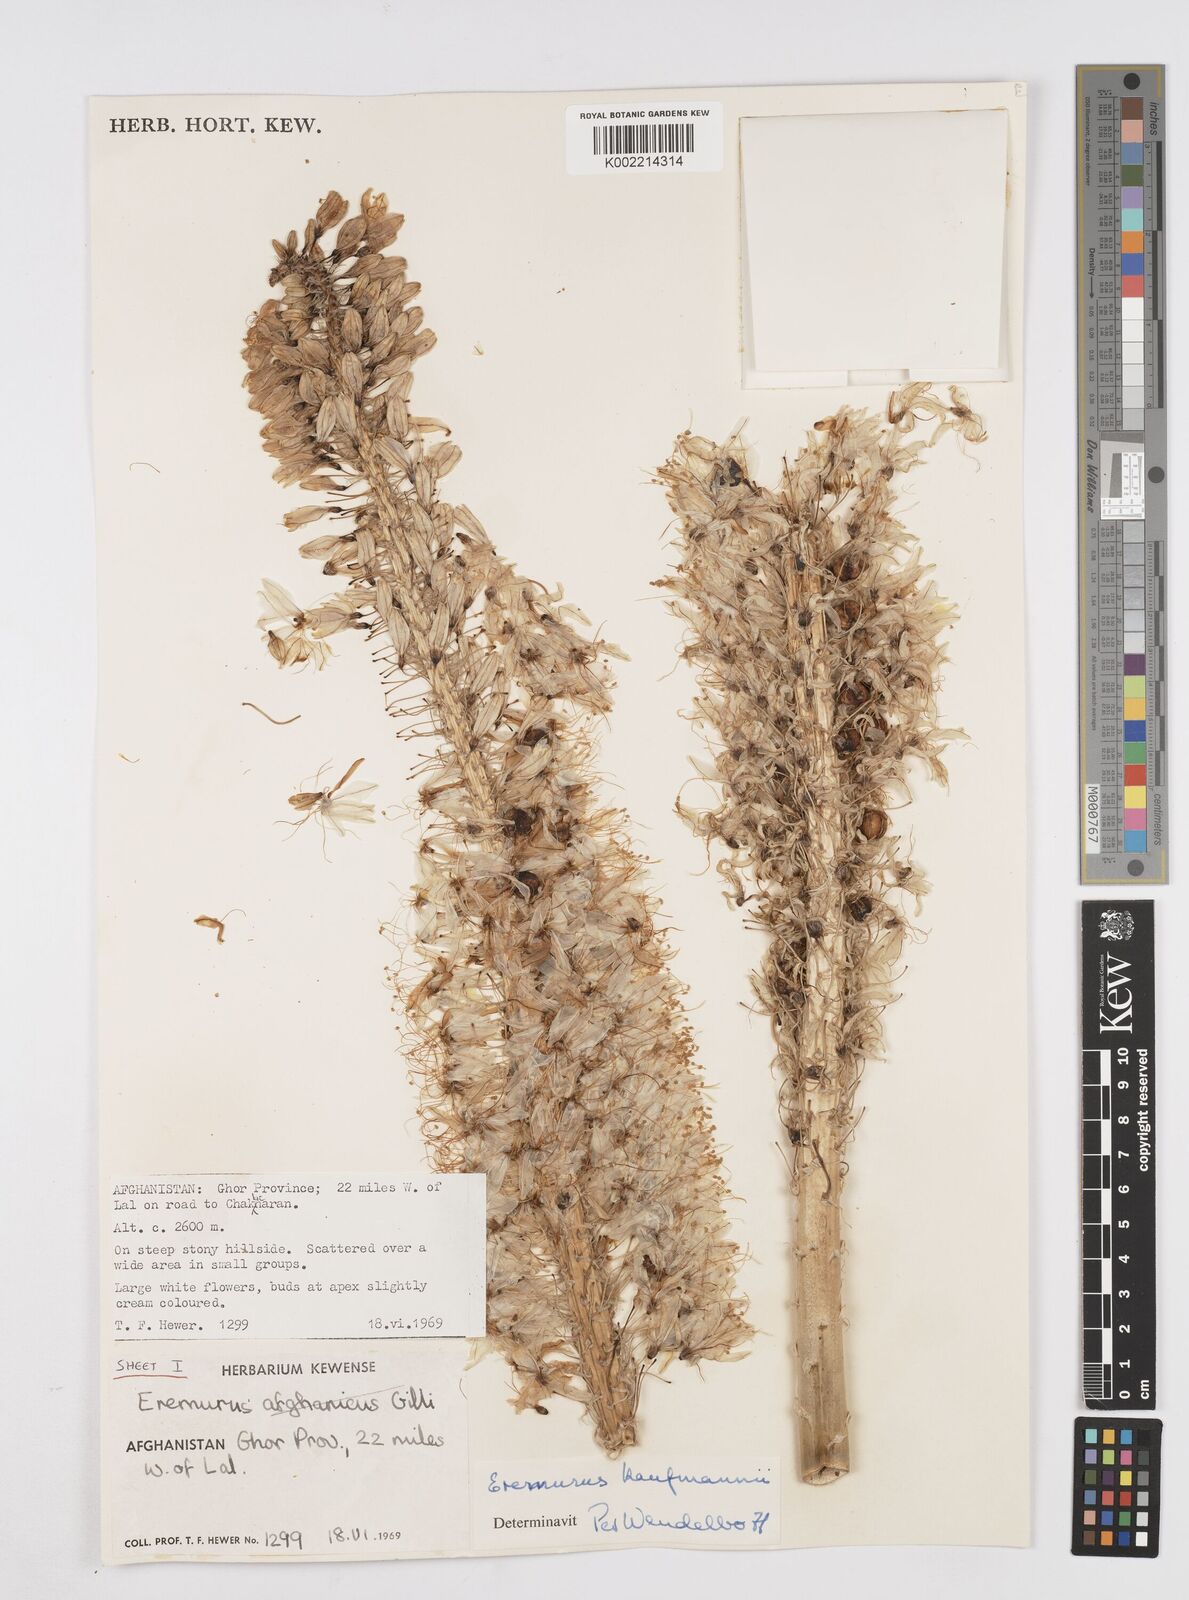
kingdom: Plantae
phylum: Tracheophyta
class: Liliopsida
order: Asparagales
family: Asphodelaceae
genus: Eremurus
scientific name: Eremurus kaufmannii
